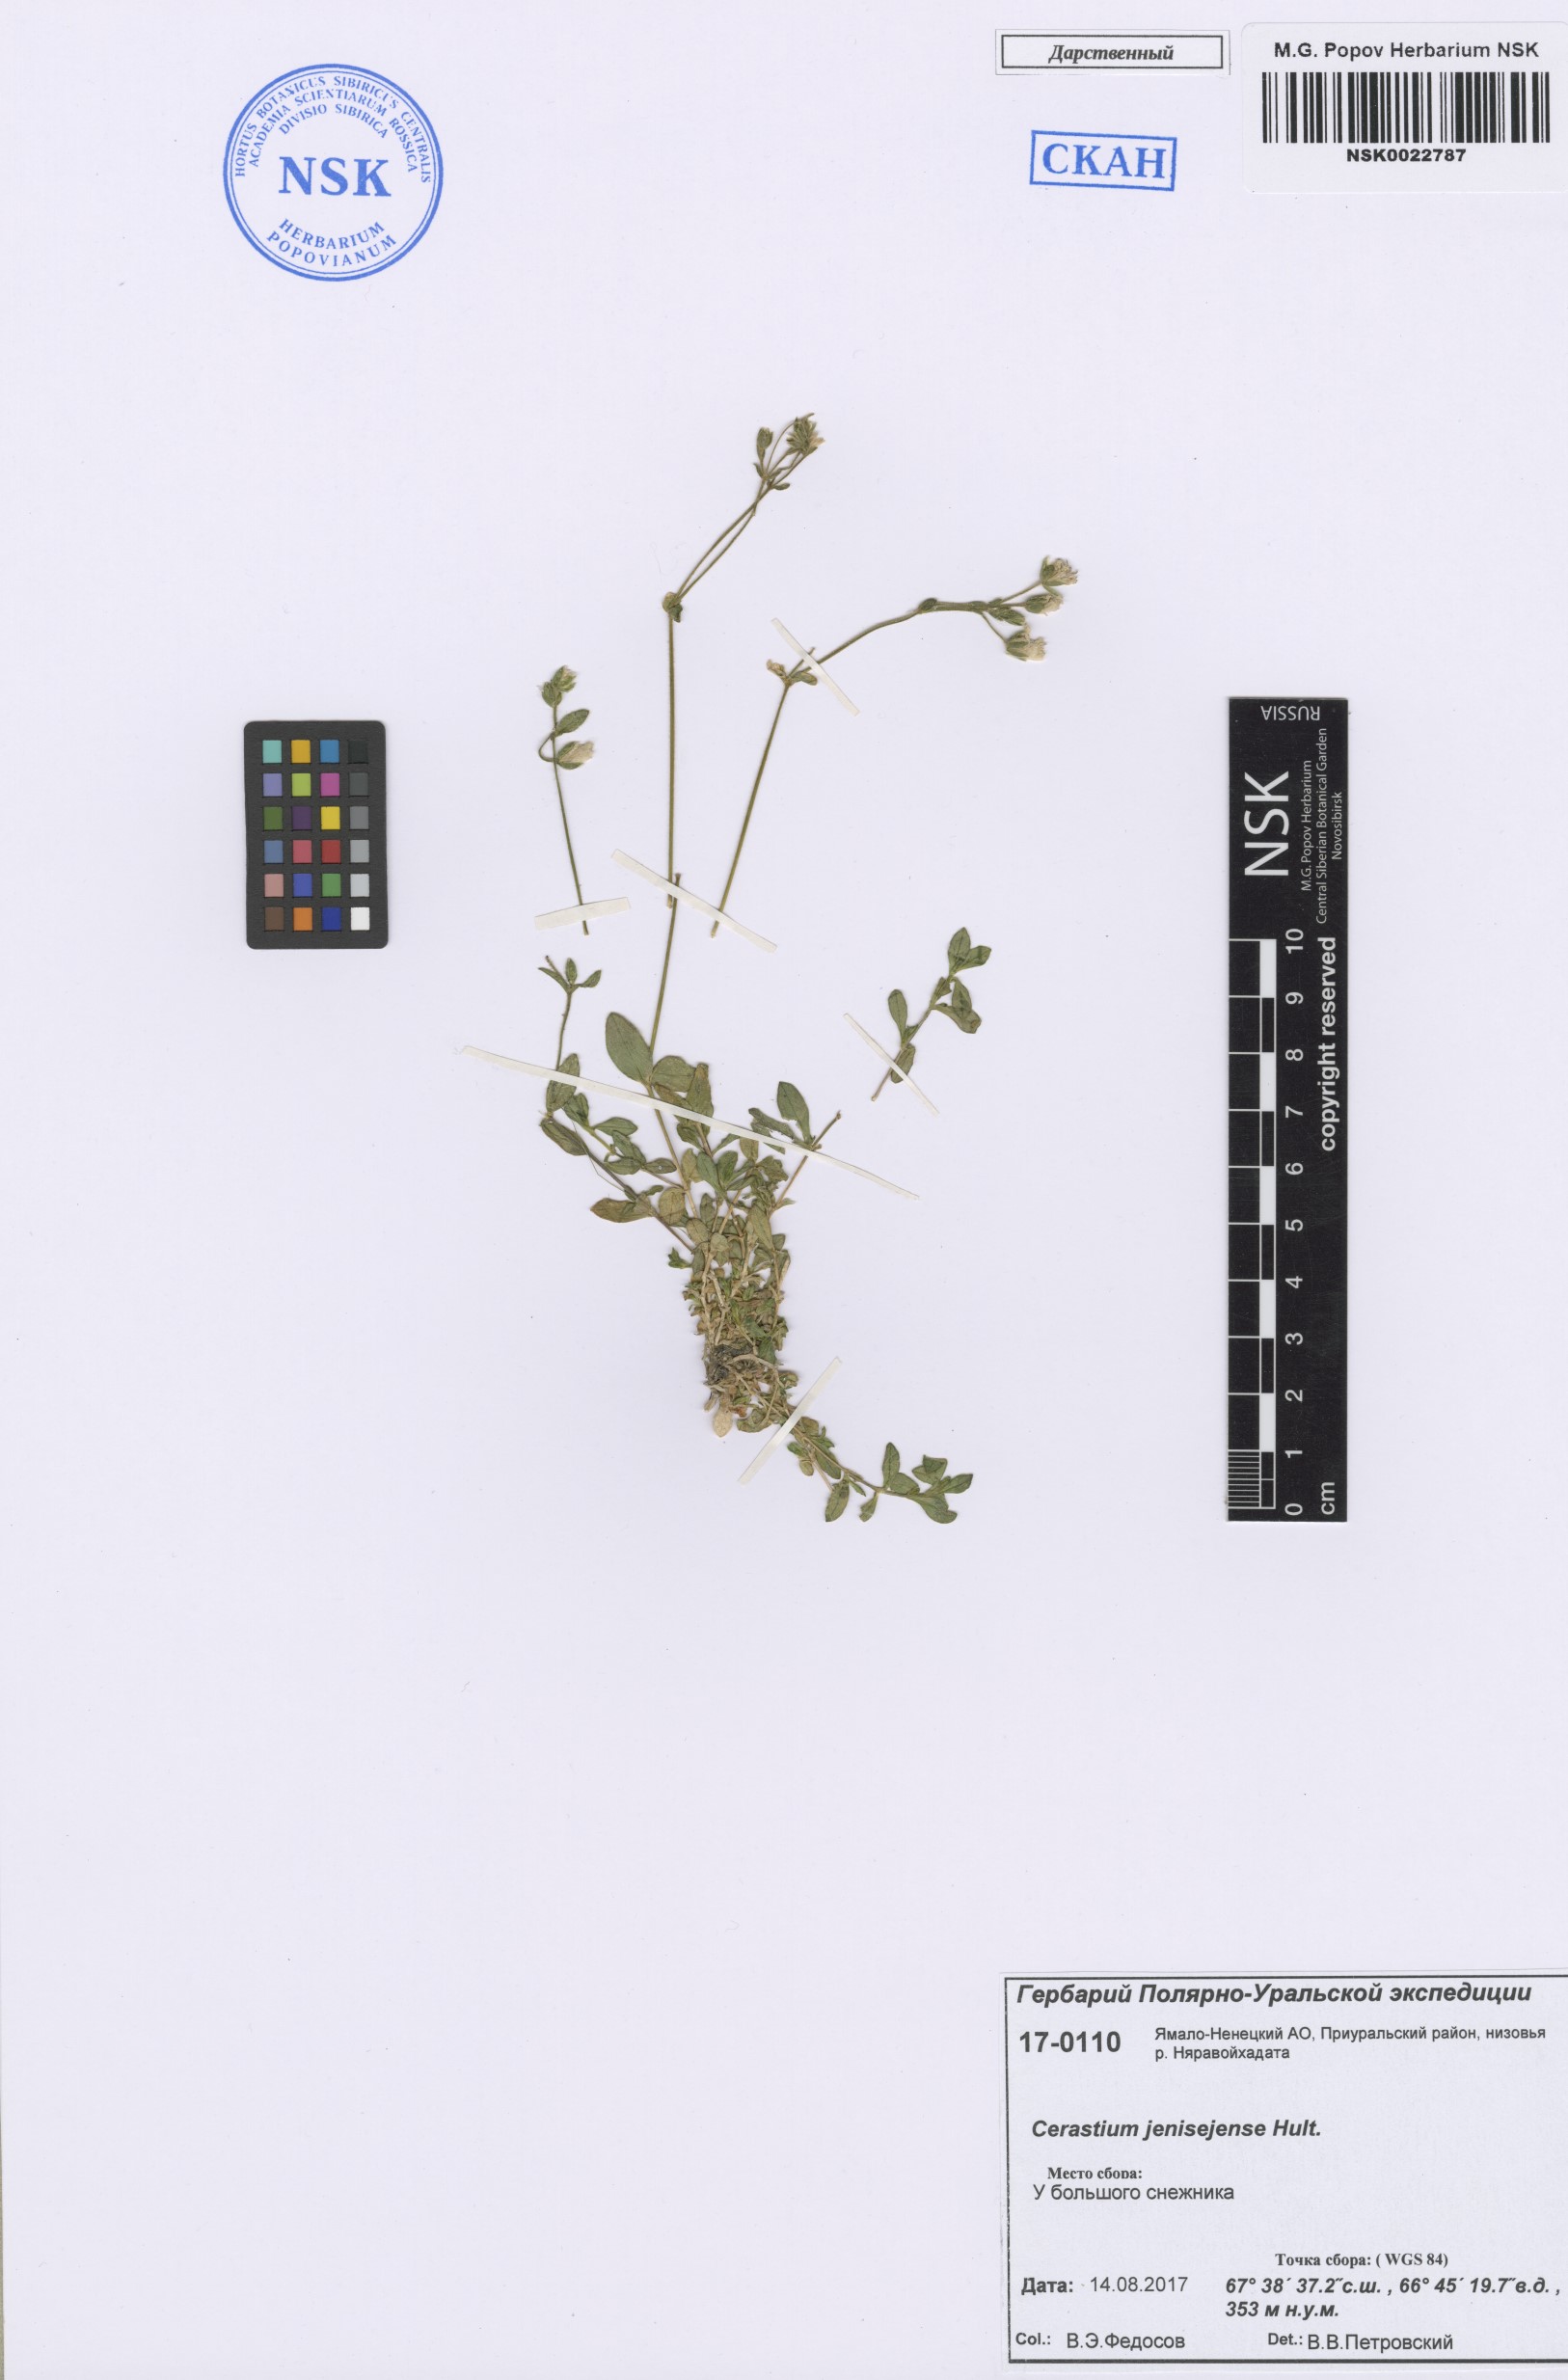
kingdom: Plantae
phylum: Tracheophyta
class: Magnoliopsida
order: Caryophyllales
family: Caryophyllaceae
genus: Cerastium
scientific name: Cerastium regelii
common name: Regel's chickweed
